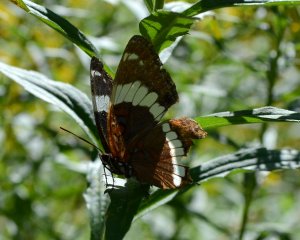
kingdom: Animalia
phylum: Arthropoda
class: Insecta
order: Lepidoptera
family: Nymphalidae
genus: Limenitis
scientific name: Limenitis arthemis
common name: Red-spotted Admiral
